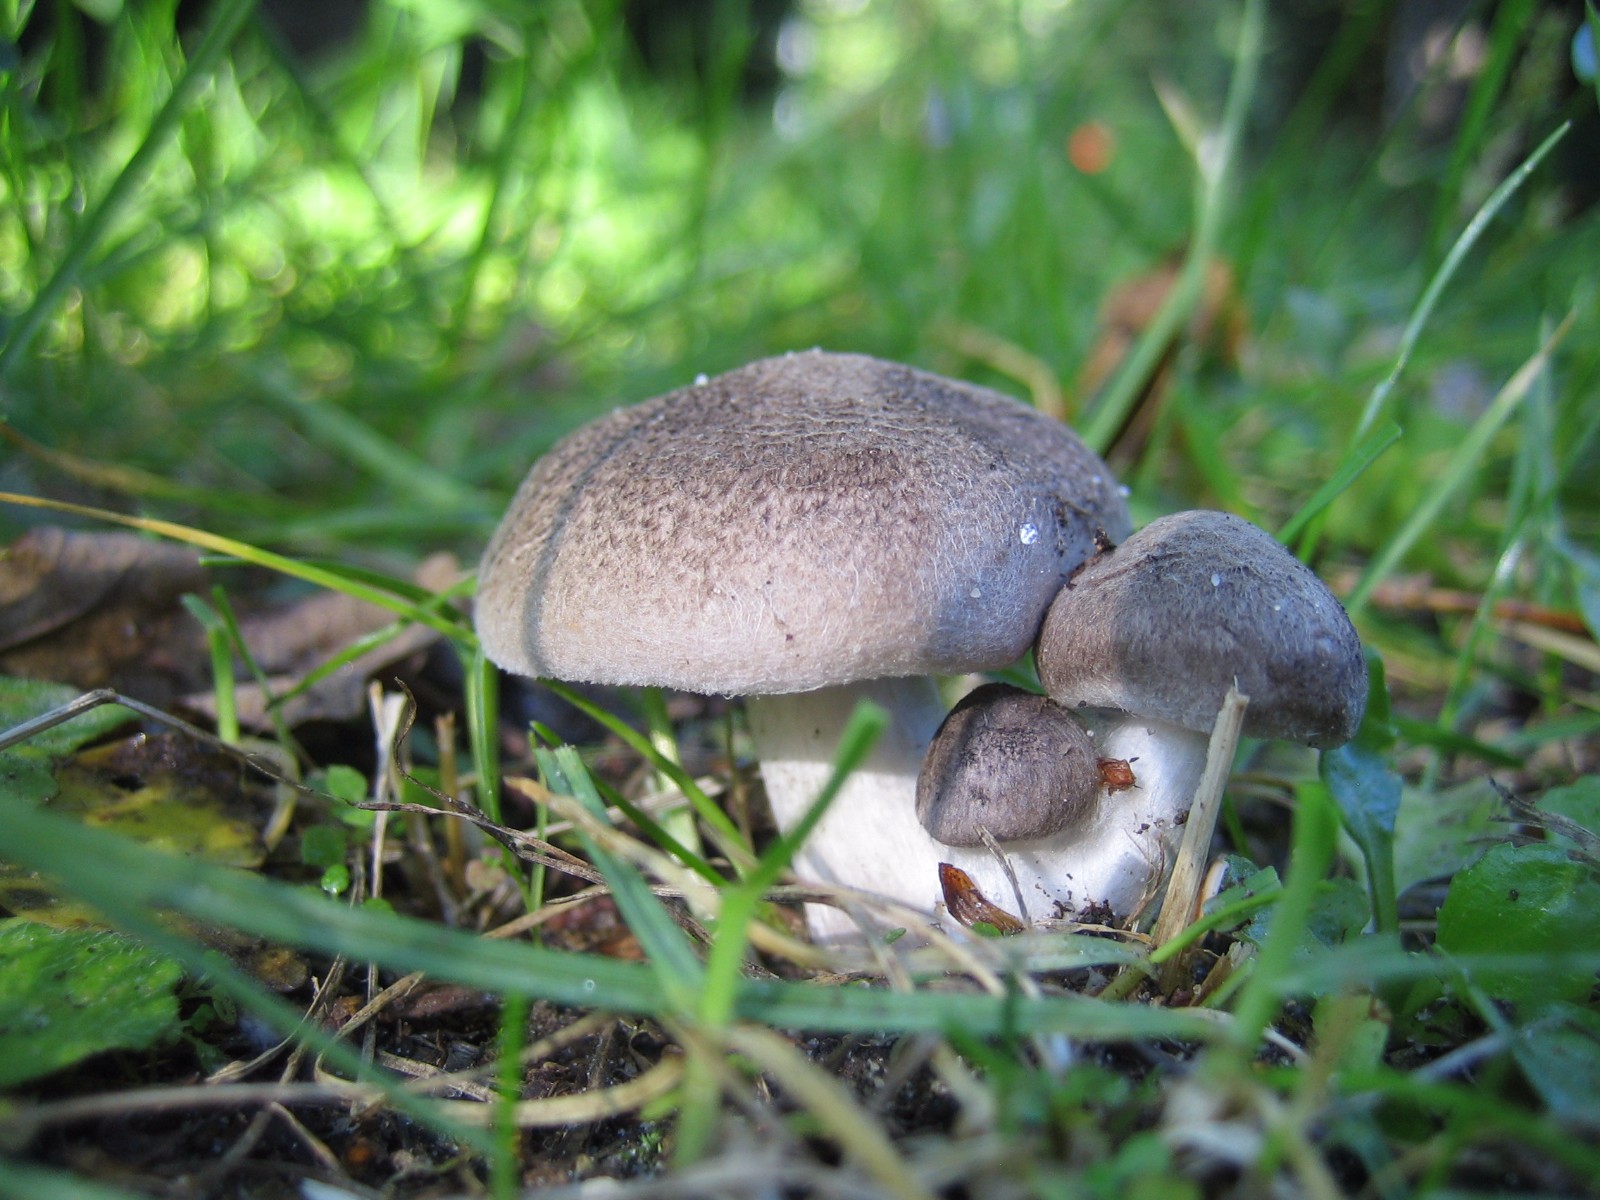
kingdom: Fungi
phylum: Basidiomycota
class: Agaricomycetes
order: Agaricales
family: Tricholomataceae
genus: Tricholoma
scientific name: Tricholoma terreum
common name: jordfarvet ridderhat
